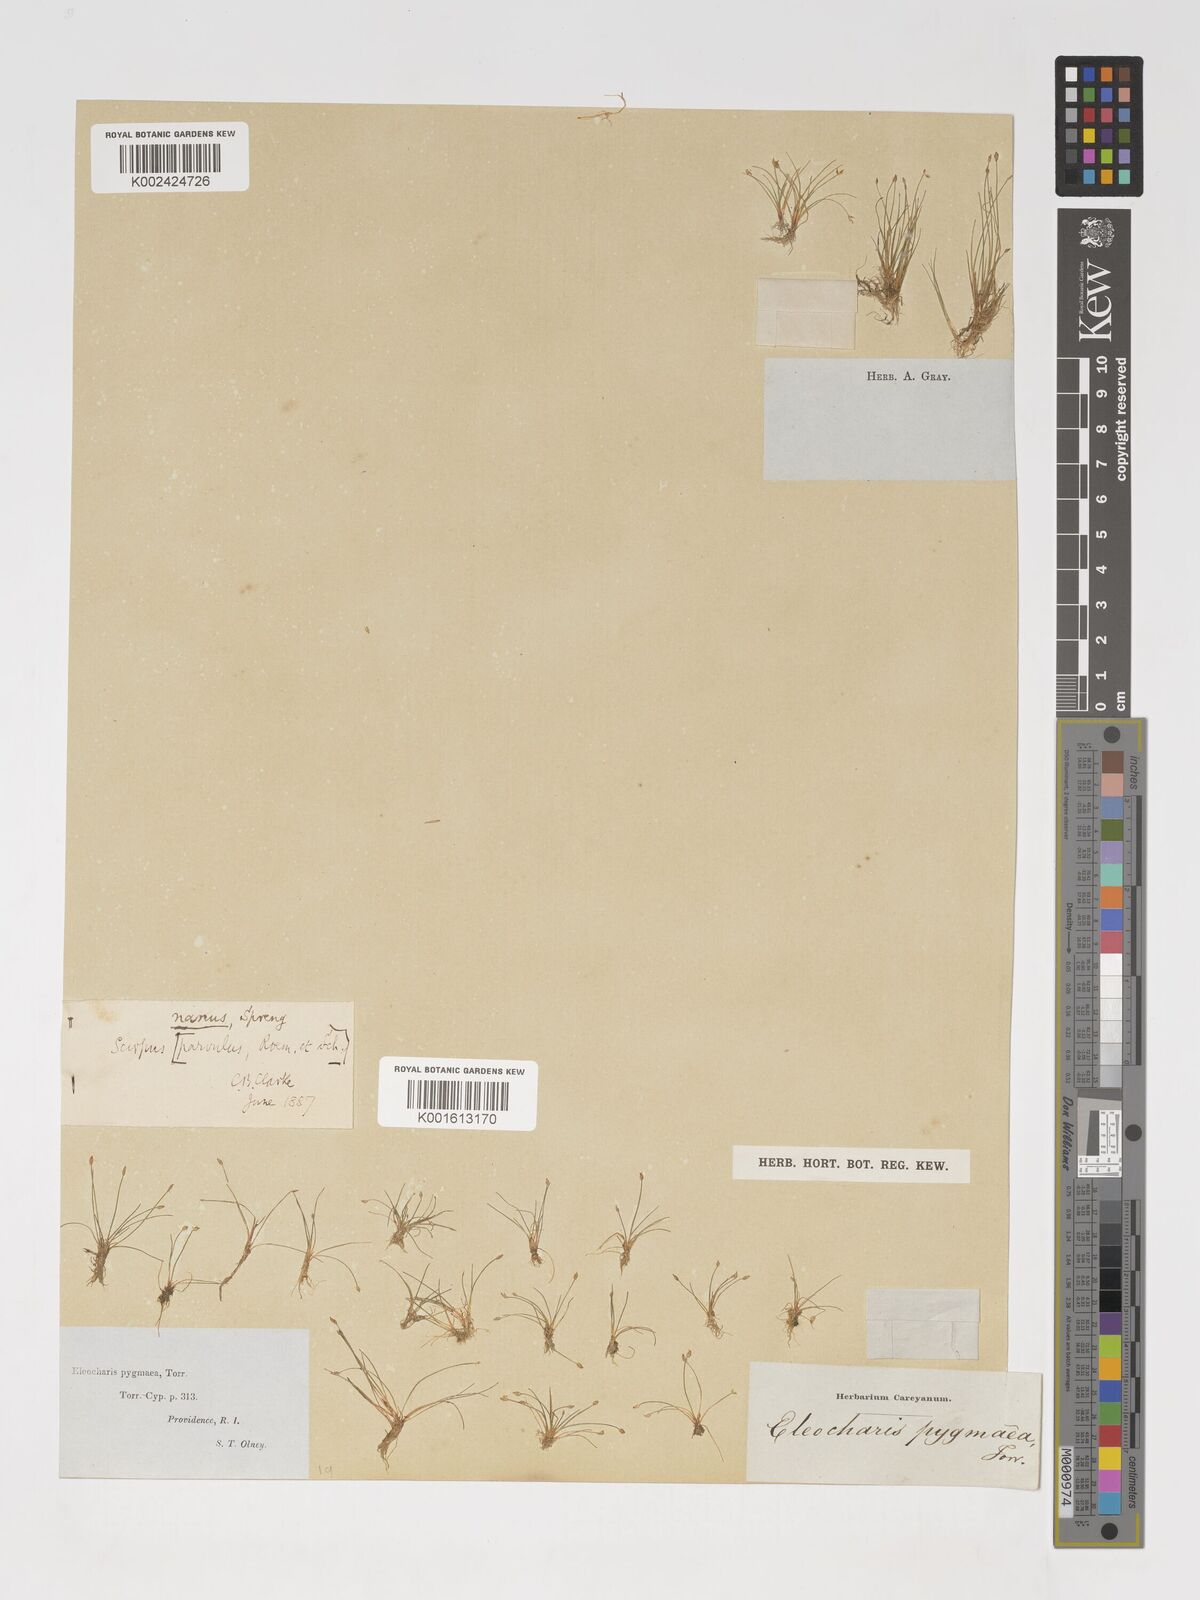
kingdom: Plantae
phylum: Tracheophyta
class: Liliopsida
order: Poales
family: Cyperaceae
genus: Eleocharis
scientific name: Eleocharis parvula
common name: Dwarf spike-rush
